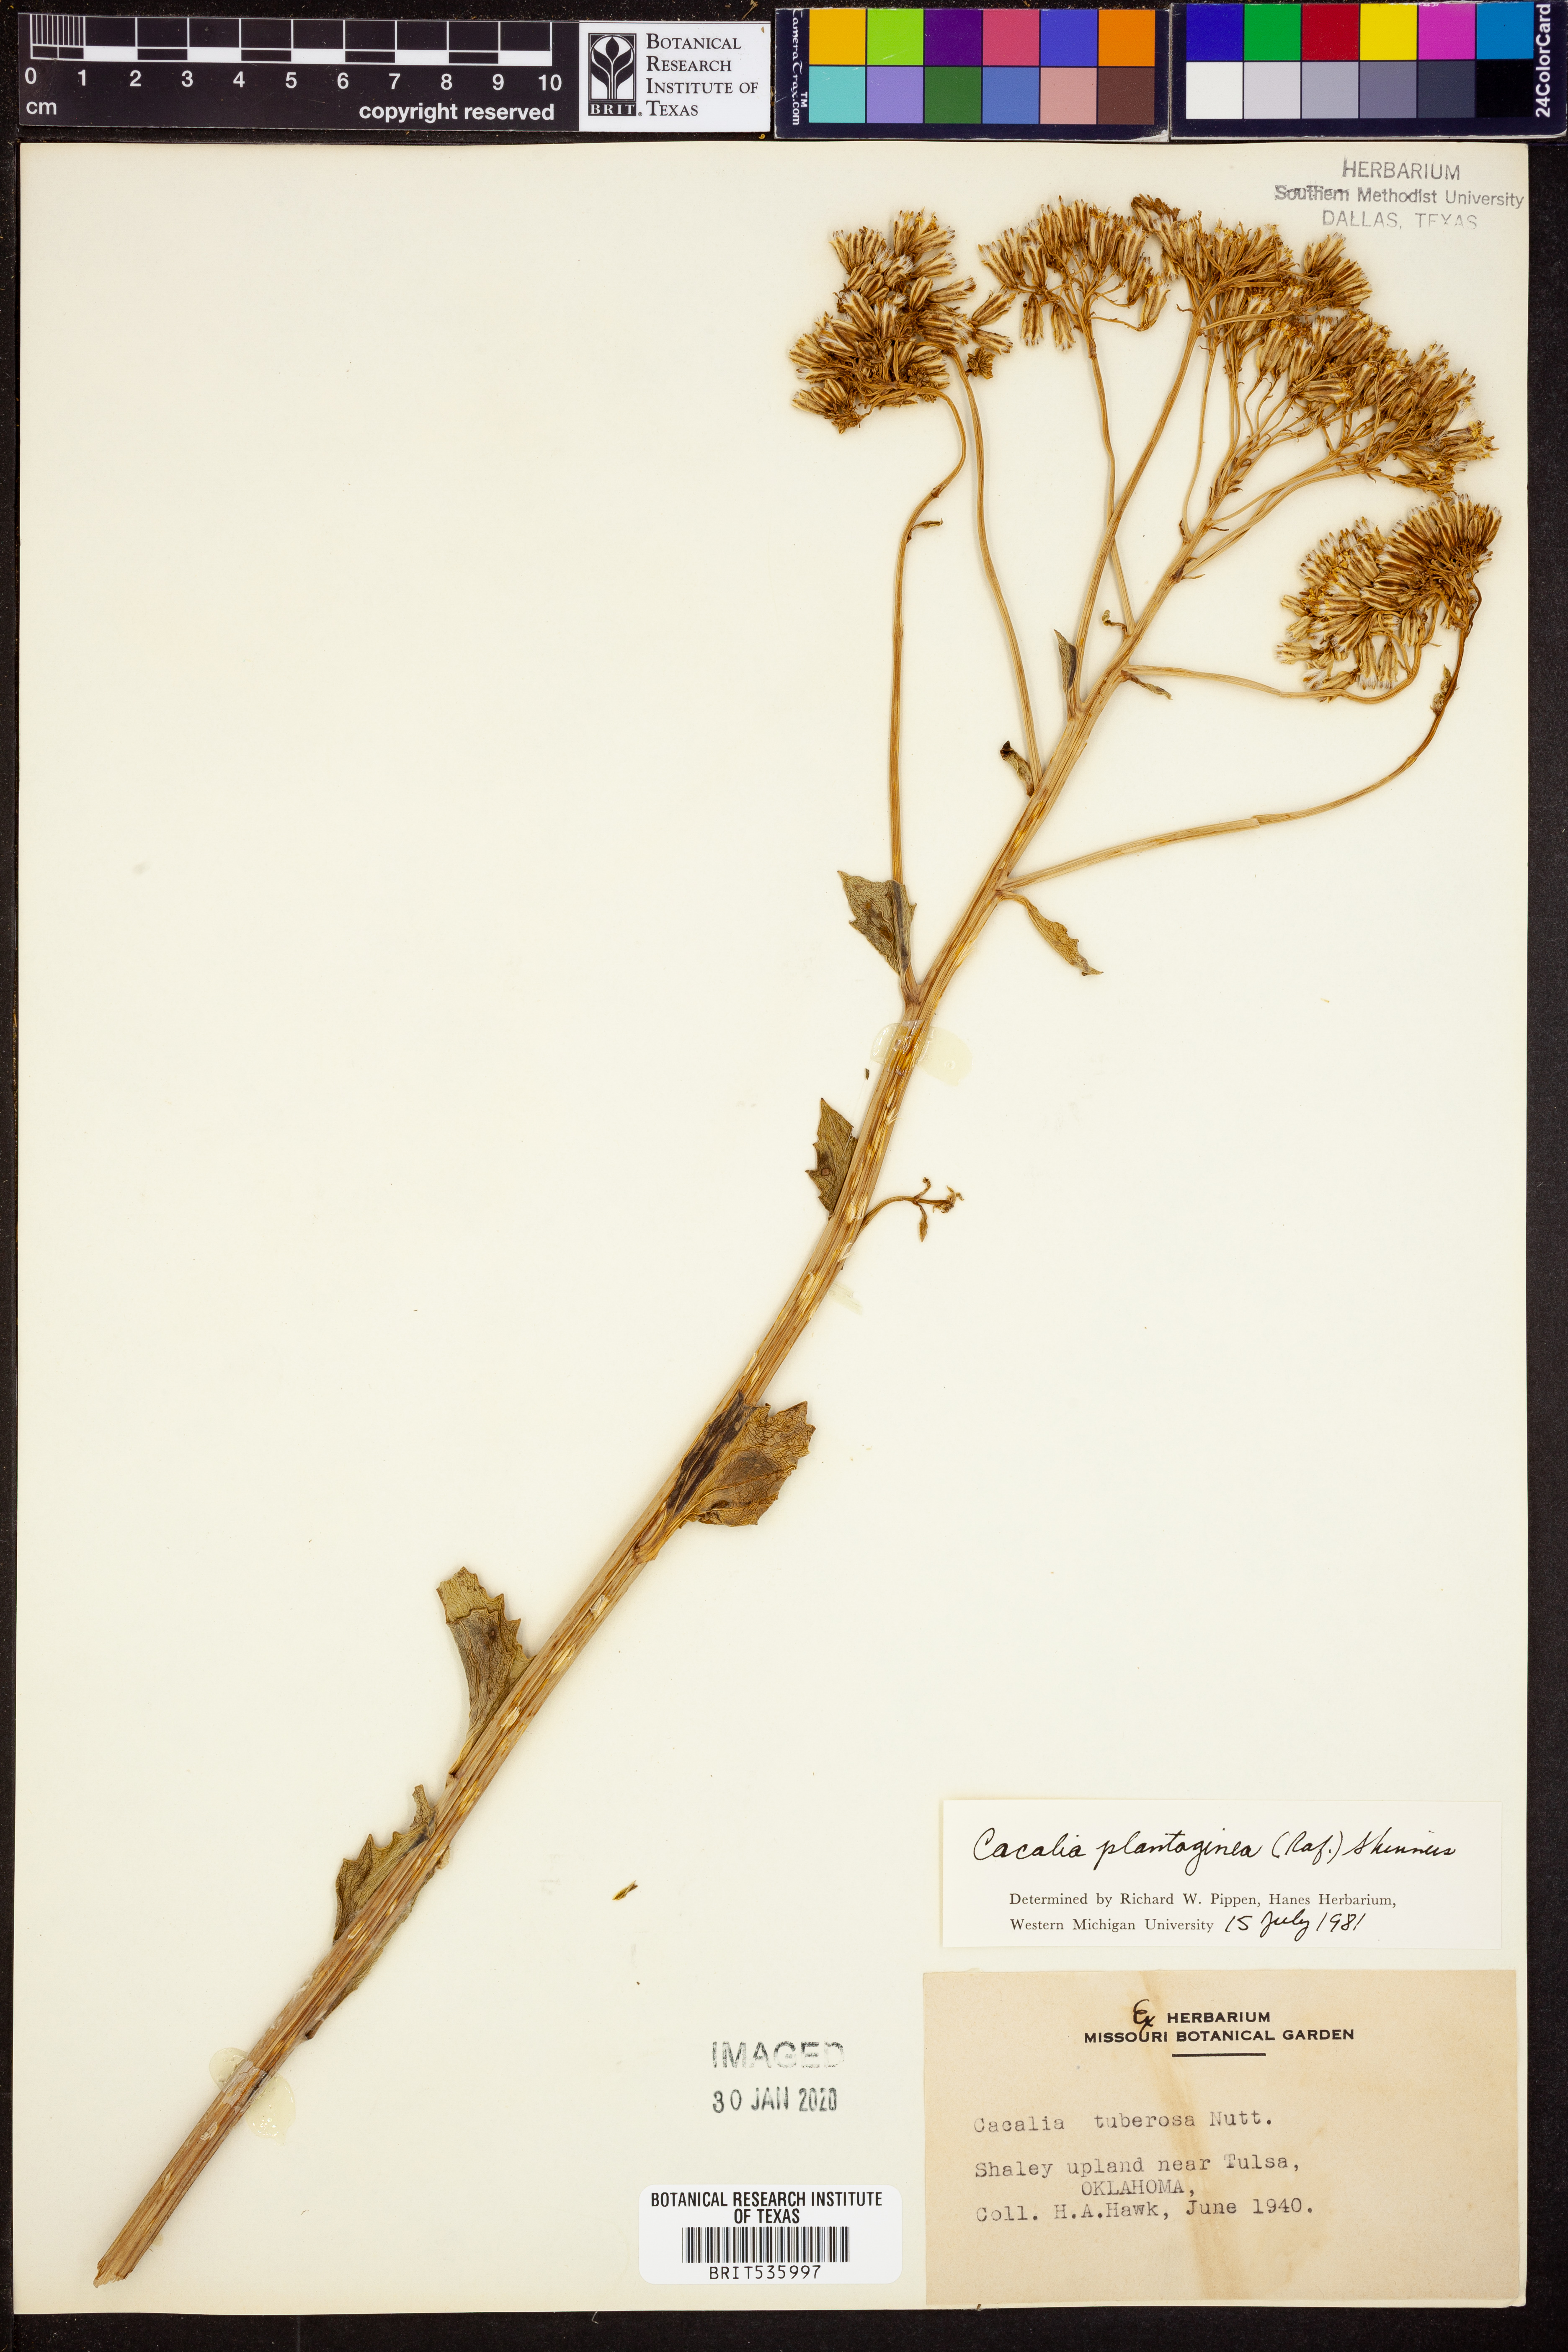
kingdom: Plantae
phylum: Tracheophyta
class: Magnoliopsida
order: Asterales
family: Asteraceae
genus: Arnoglossum
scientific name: Arnoglossum plantagineum
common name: Groove-stemmed indian-plantain
